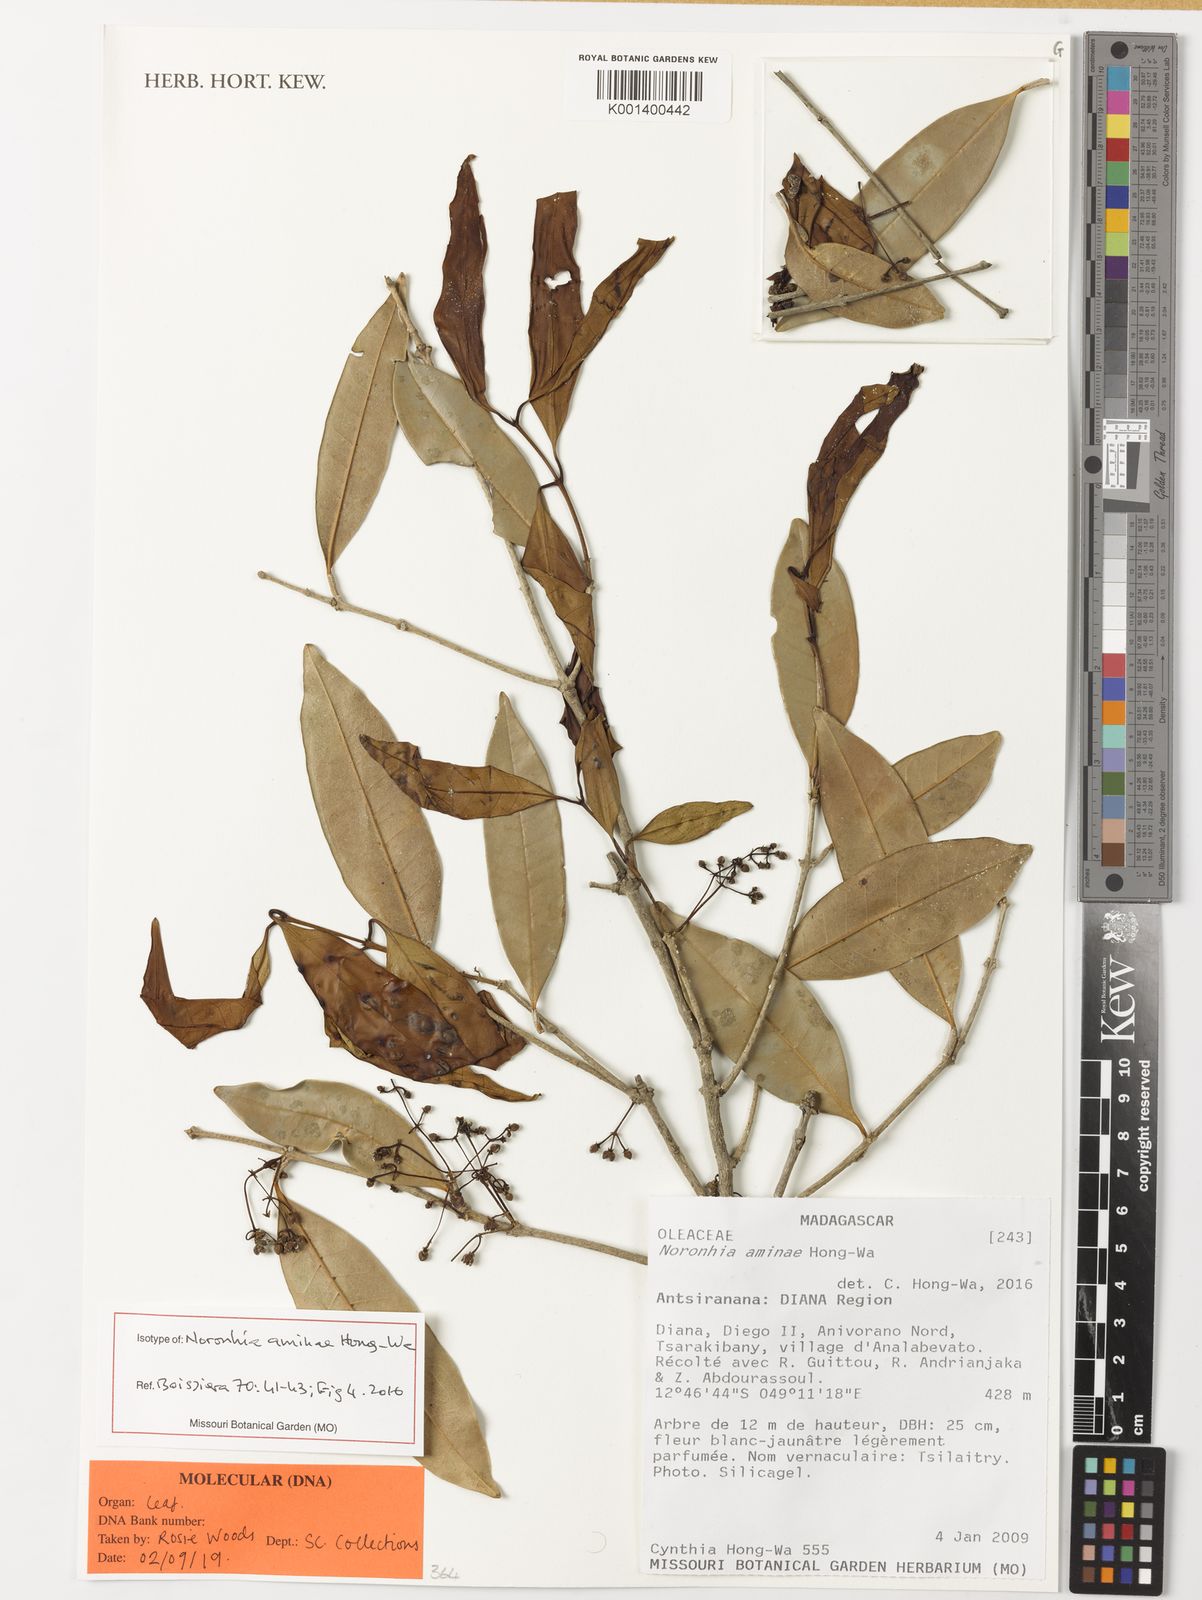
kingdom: Plantae
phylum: Tracheophyta
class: Magnoliopsida
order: Lamiales
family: Oleaceae
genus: Noronhia
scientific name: Noronhia aminae
